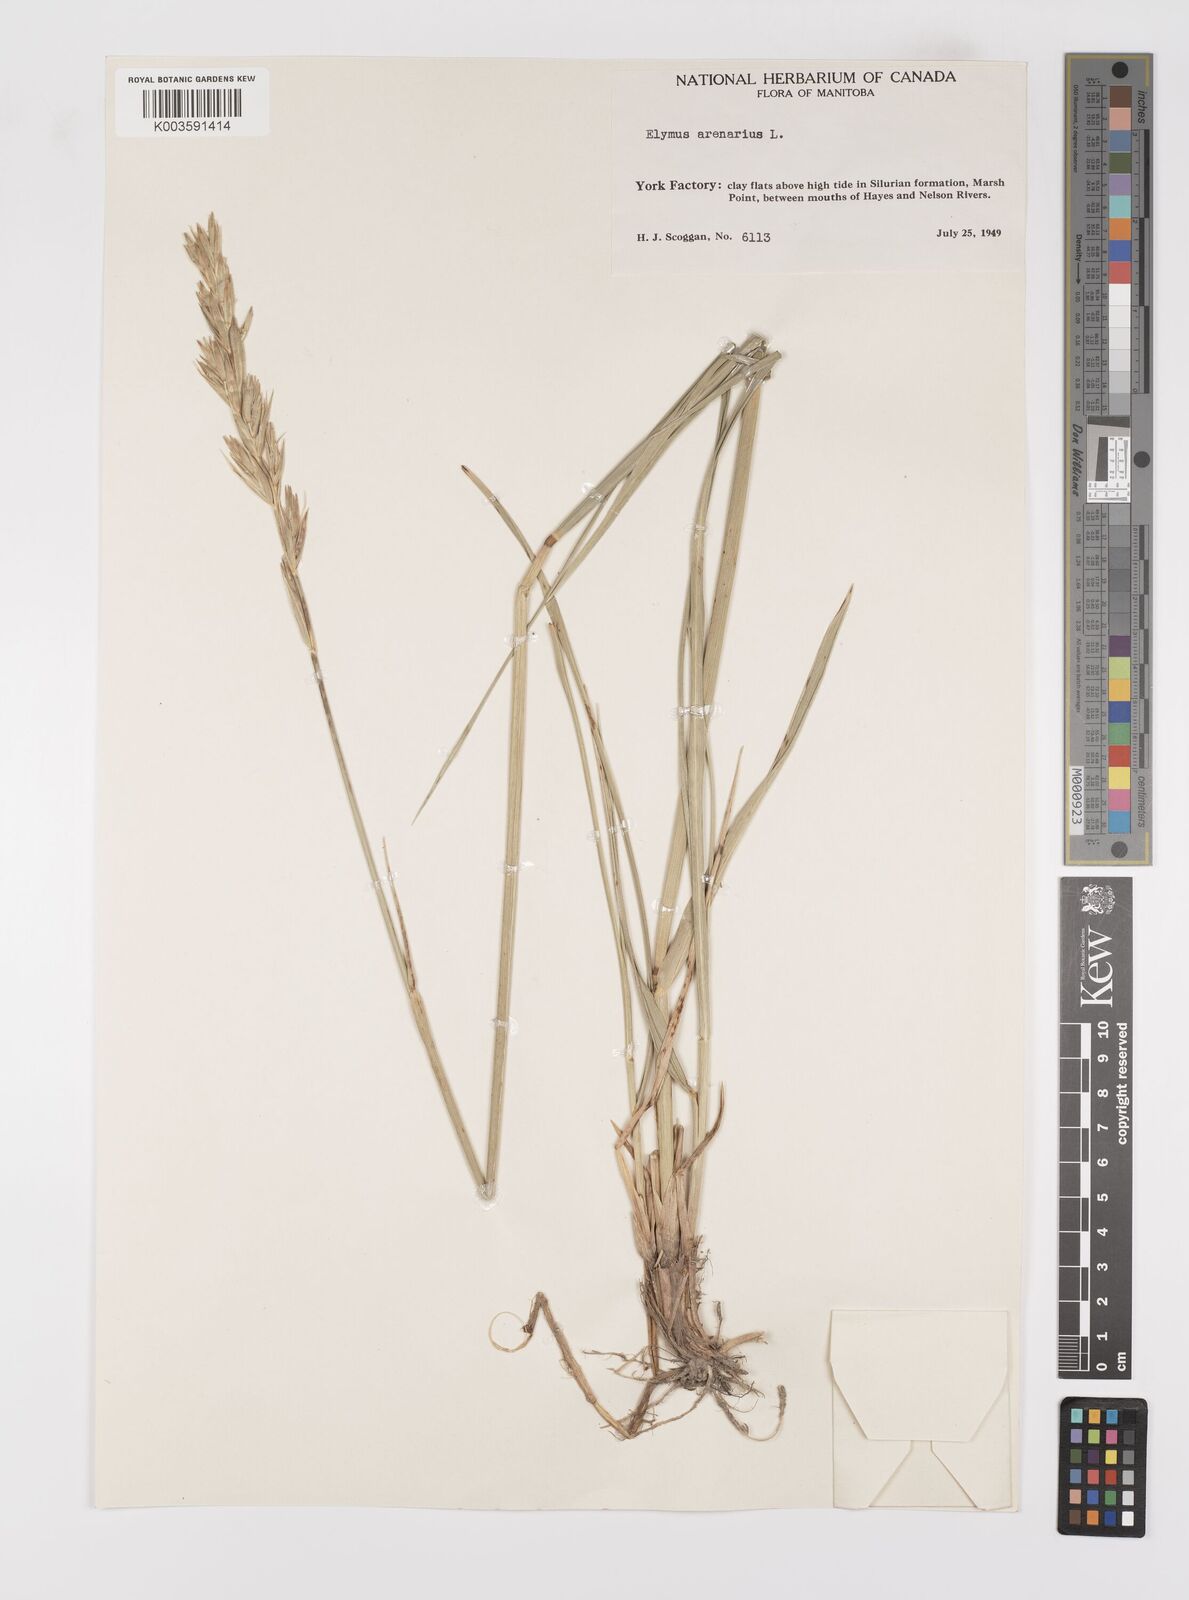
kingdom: Plantae
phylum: Tracheophyta
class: Liliopsida
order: Poales
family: Poaceae
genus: Leymus
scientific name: Leymus mollis
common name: American dune grass
